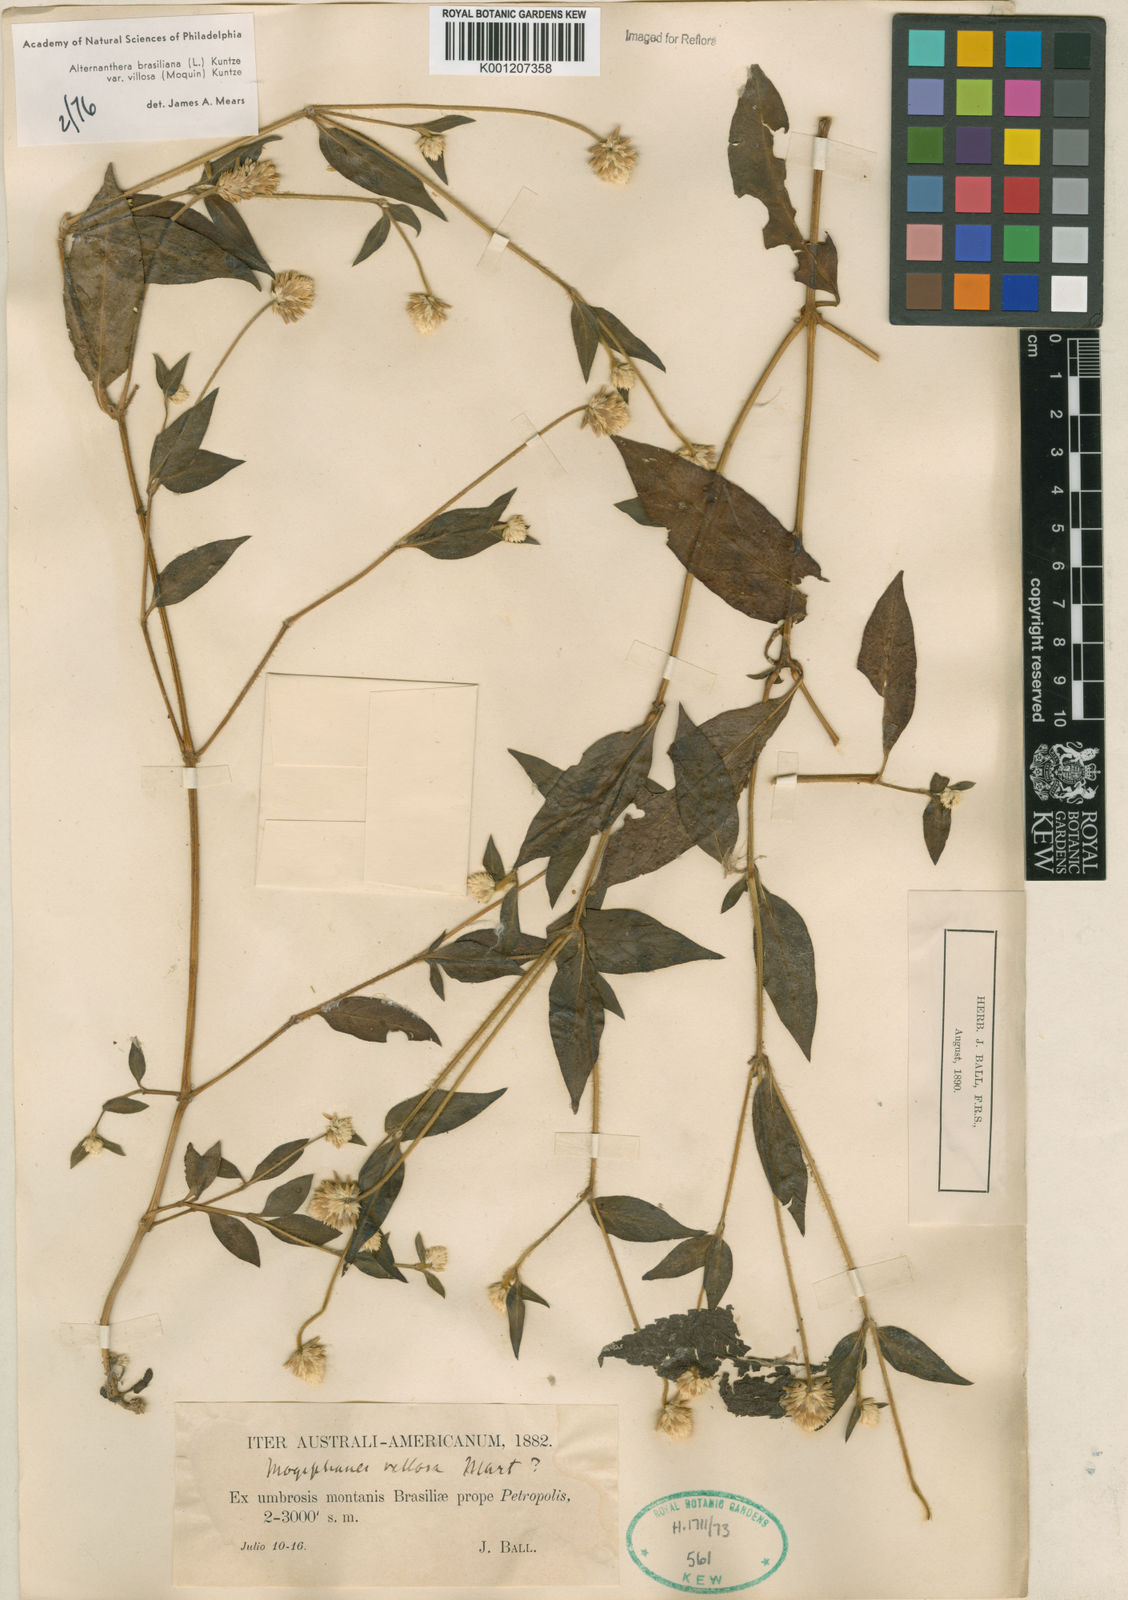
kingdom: Plantae
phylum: Tracheophyta
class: Magnoliopsida
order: Caryophyllales
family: Amaranthaceae
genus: Alternanthera
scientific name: Alternanthera brasiliana
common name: Brazilian joyweed
